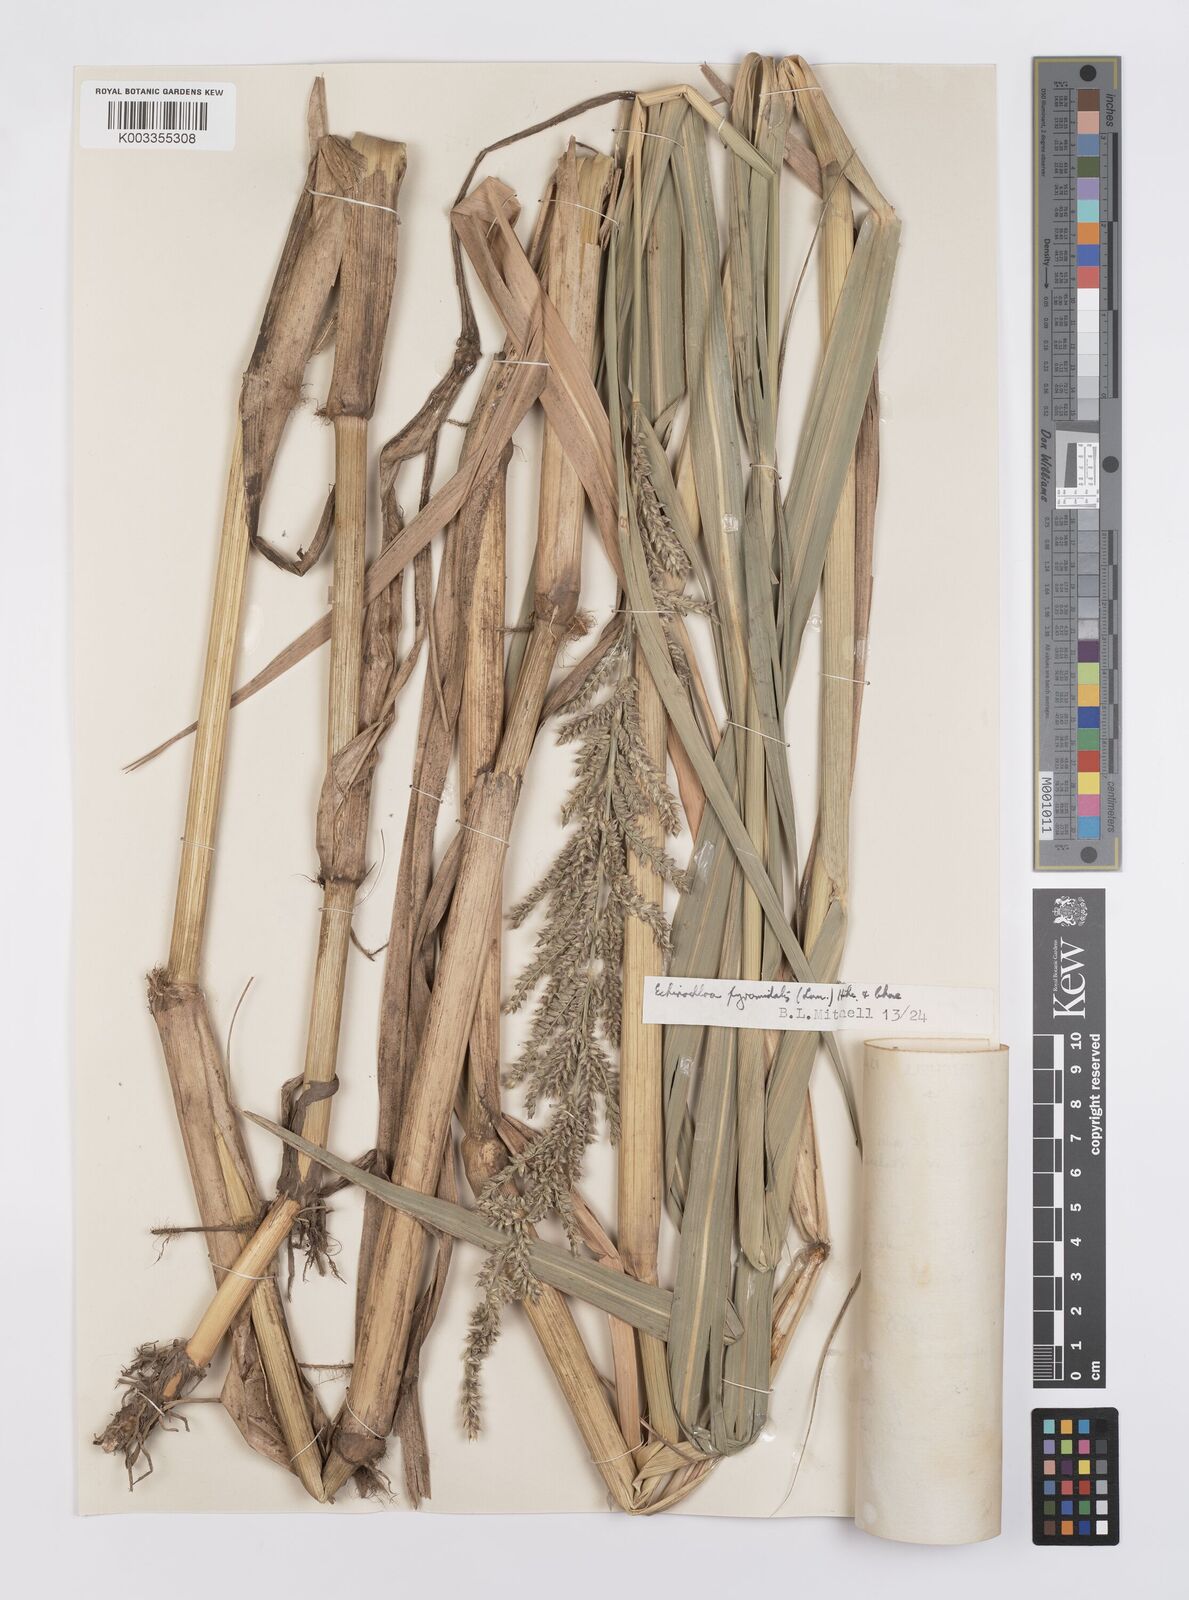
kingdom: Plantae
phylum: Tracheophyta
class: Liliopsida
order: Poales
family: Poaceae
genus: Echinochloa
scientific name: Echinochloa pyramidalis
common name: Antelope grass
